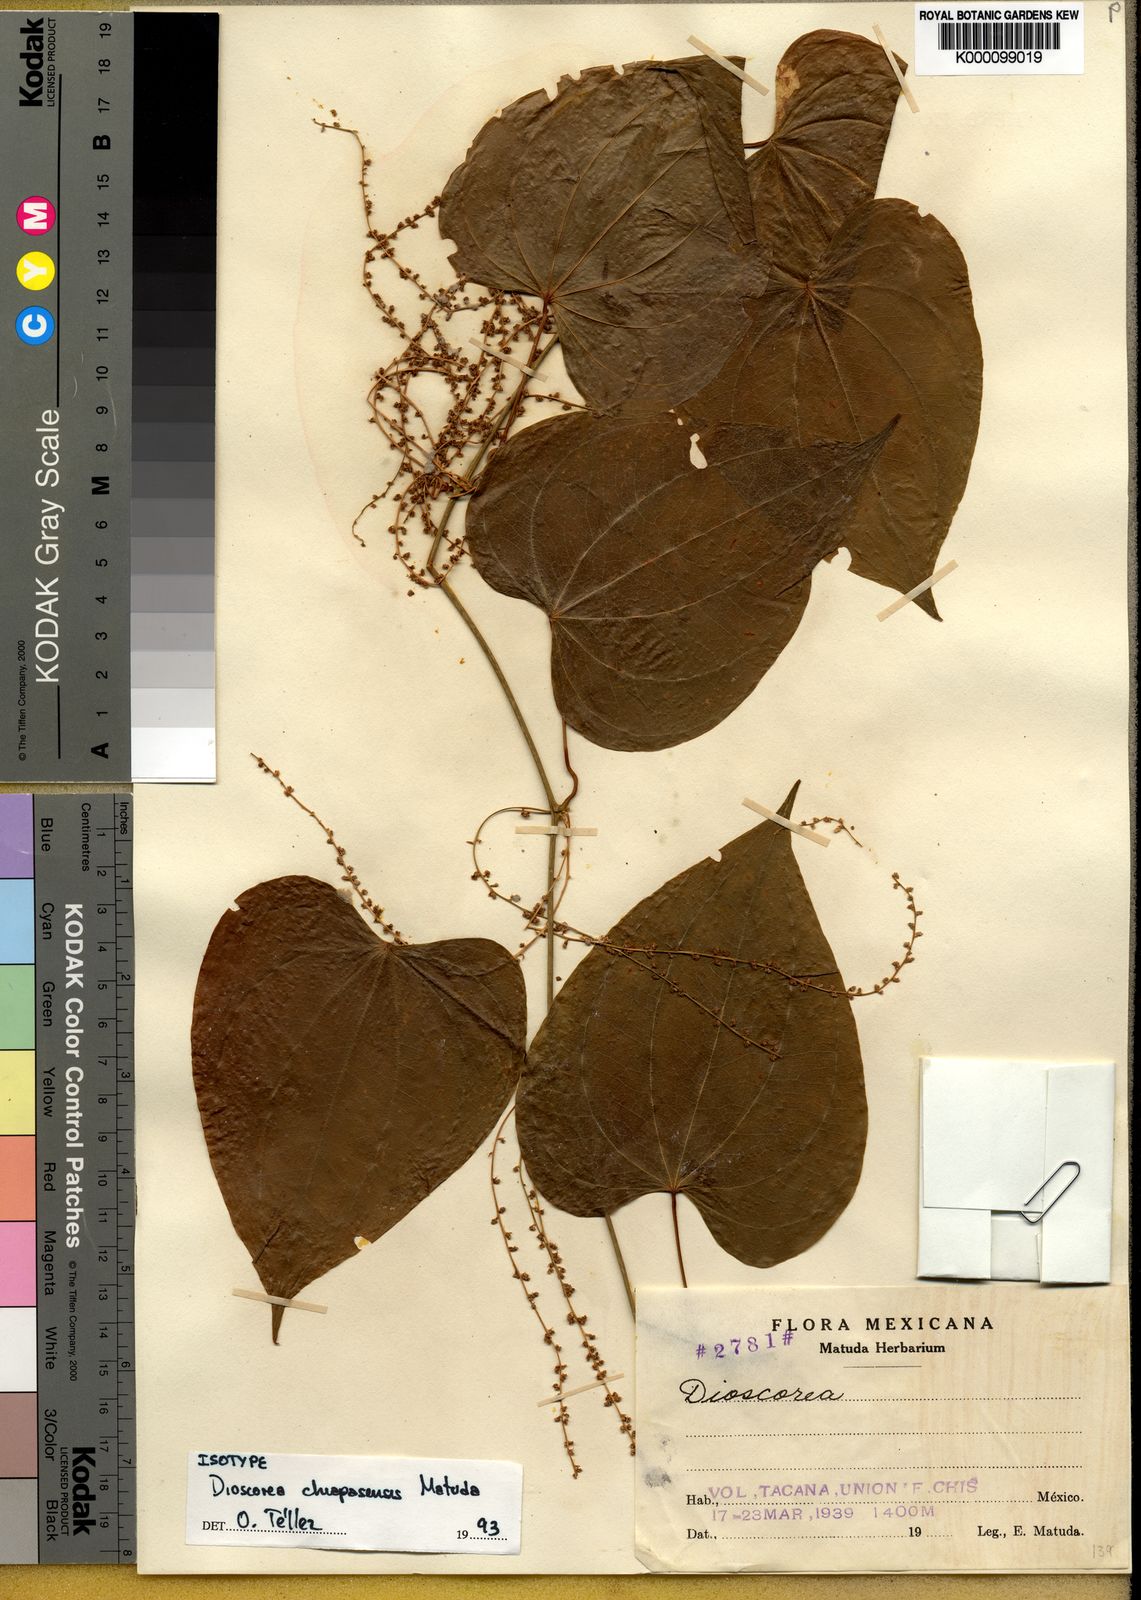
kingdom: Plantae
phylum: Tracheophyta
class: Liliopsida
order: Dioscoreales
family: Dioscoreaceae
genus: Dioscorea
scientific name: Dioscorea chiapasensis
